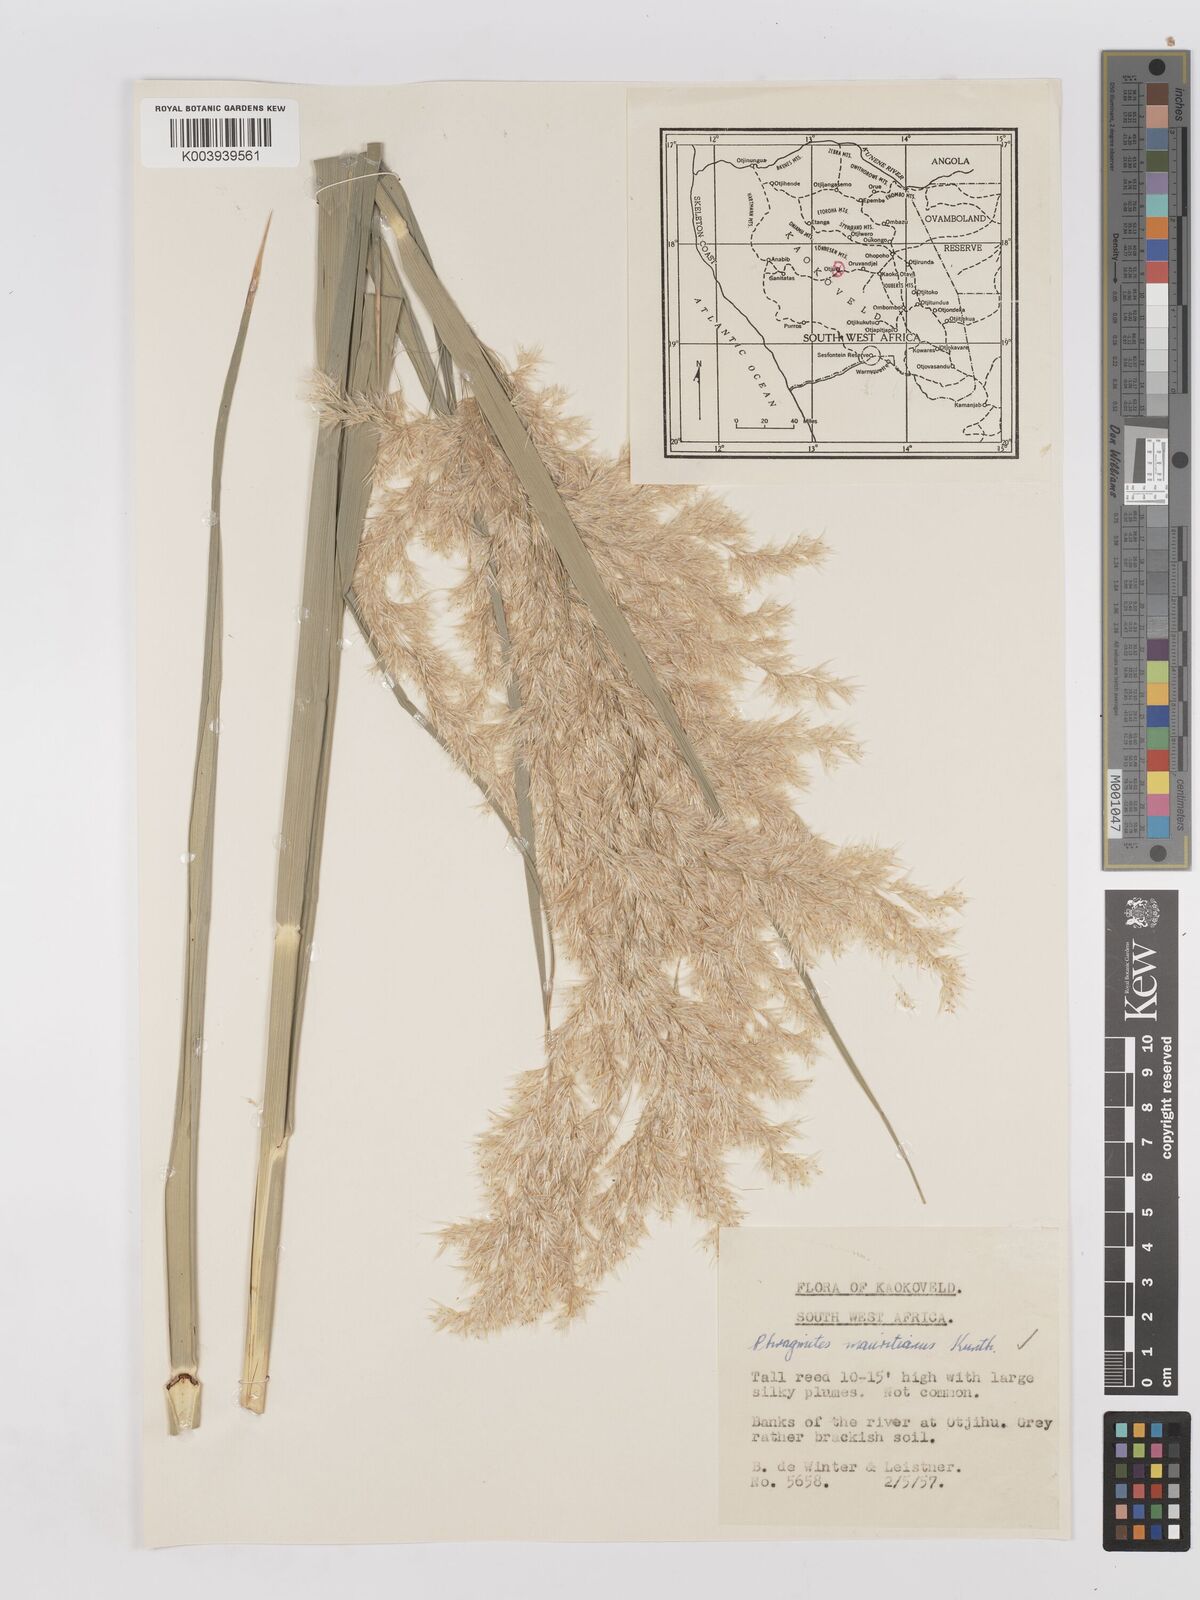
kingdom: Plantae
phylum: Tracheophyta
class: Liliopsida
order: Poales
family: Poaceae
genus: Phragmites
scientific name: Phragmites mauritianus
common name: Reed grass
